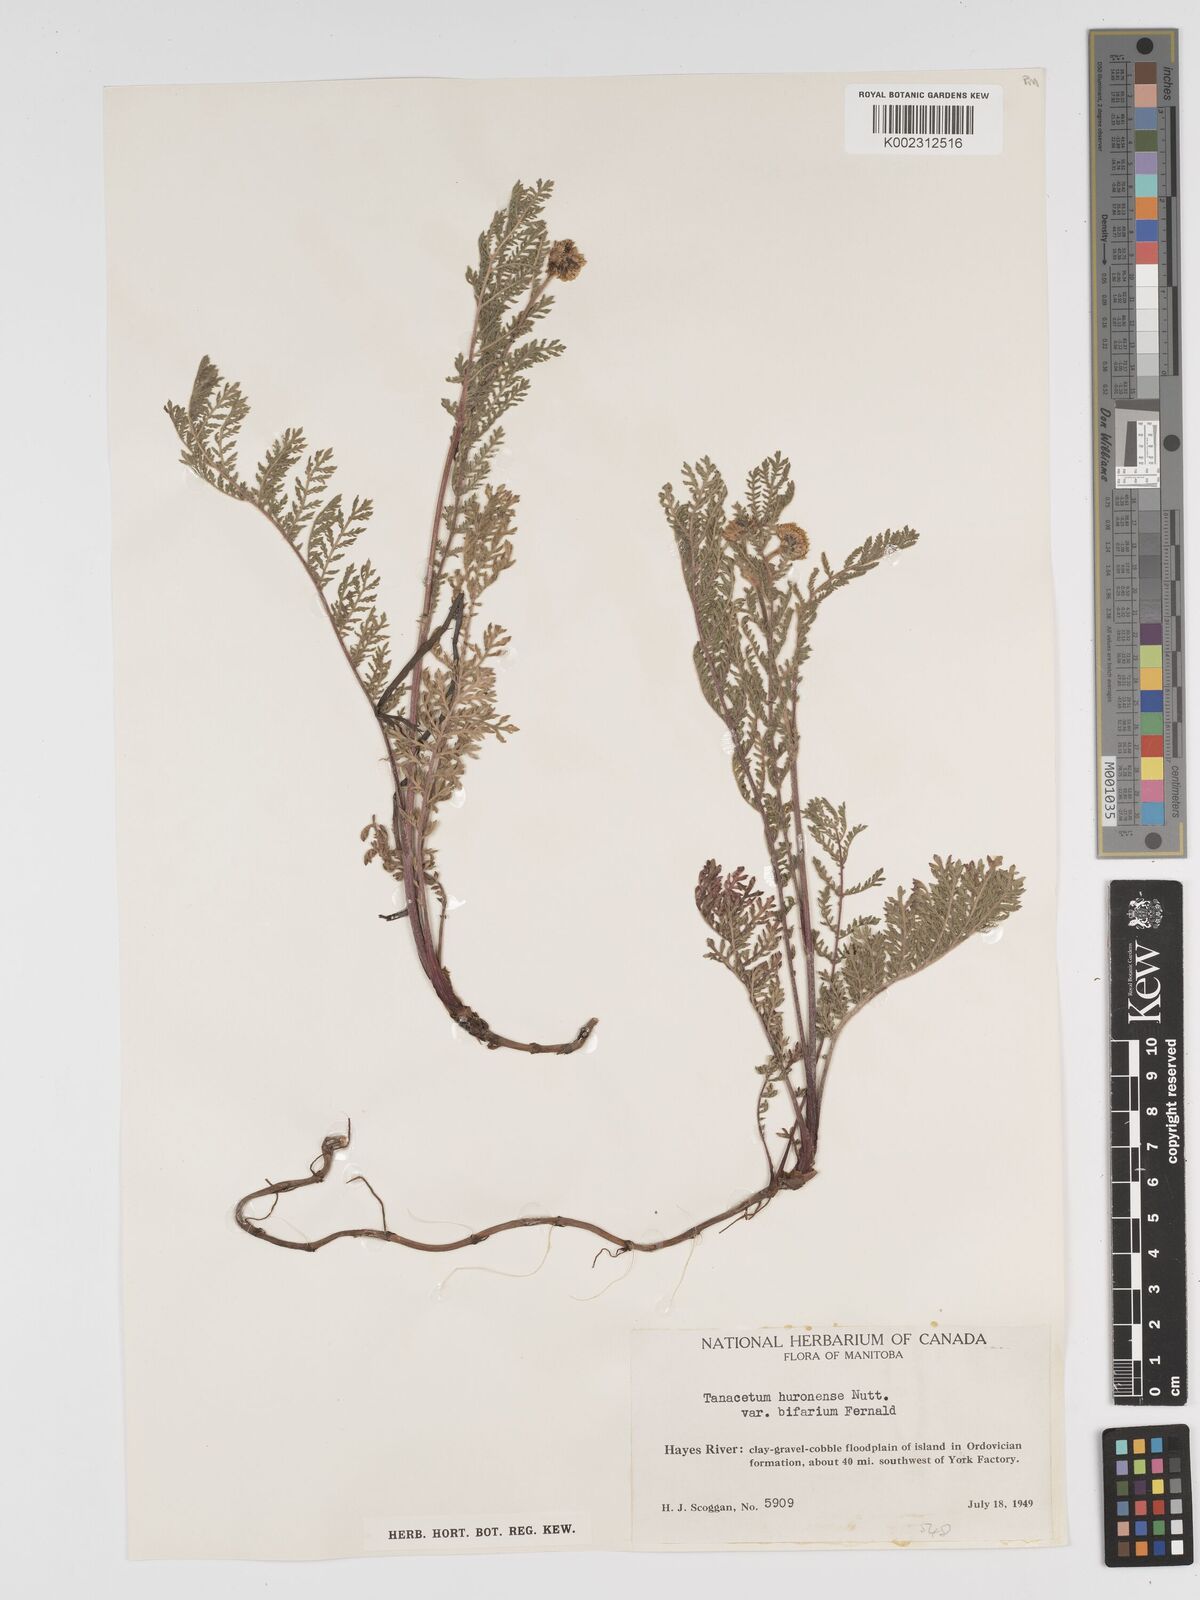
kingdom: Plantae
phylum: Tracheophyta
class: Magnoliopsida
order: Asterales
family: Asteraceae
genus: Tanacetum
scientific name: Tanacetum bipinnatum
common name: Dwarf tansy
